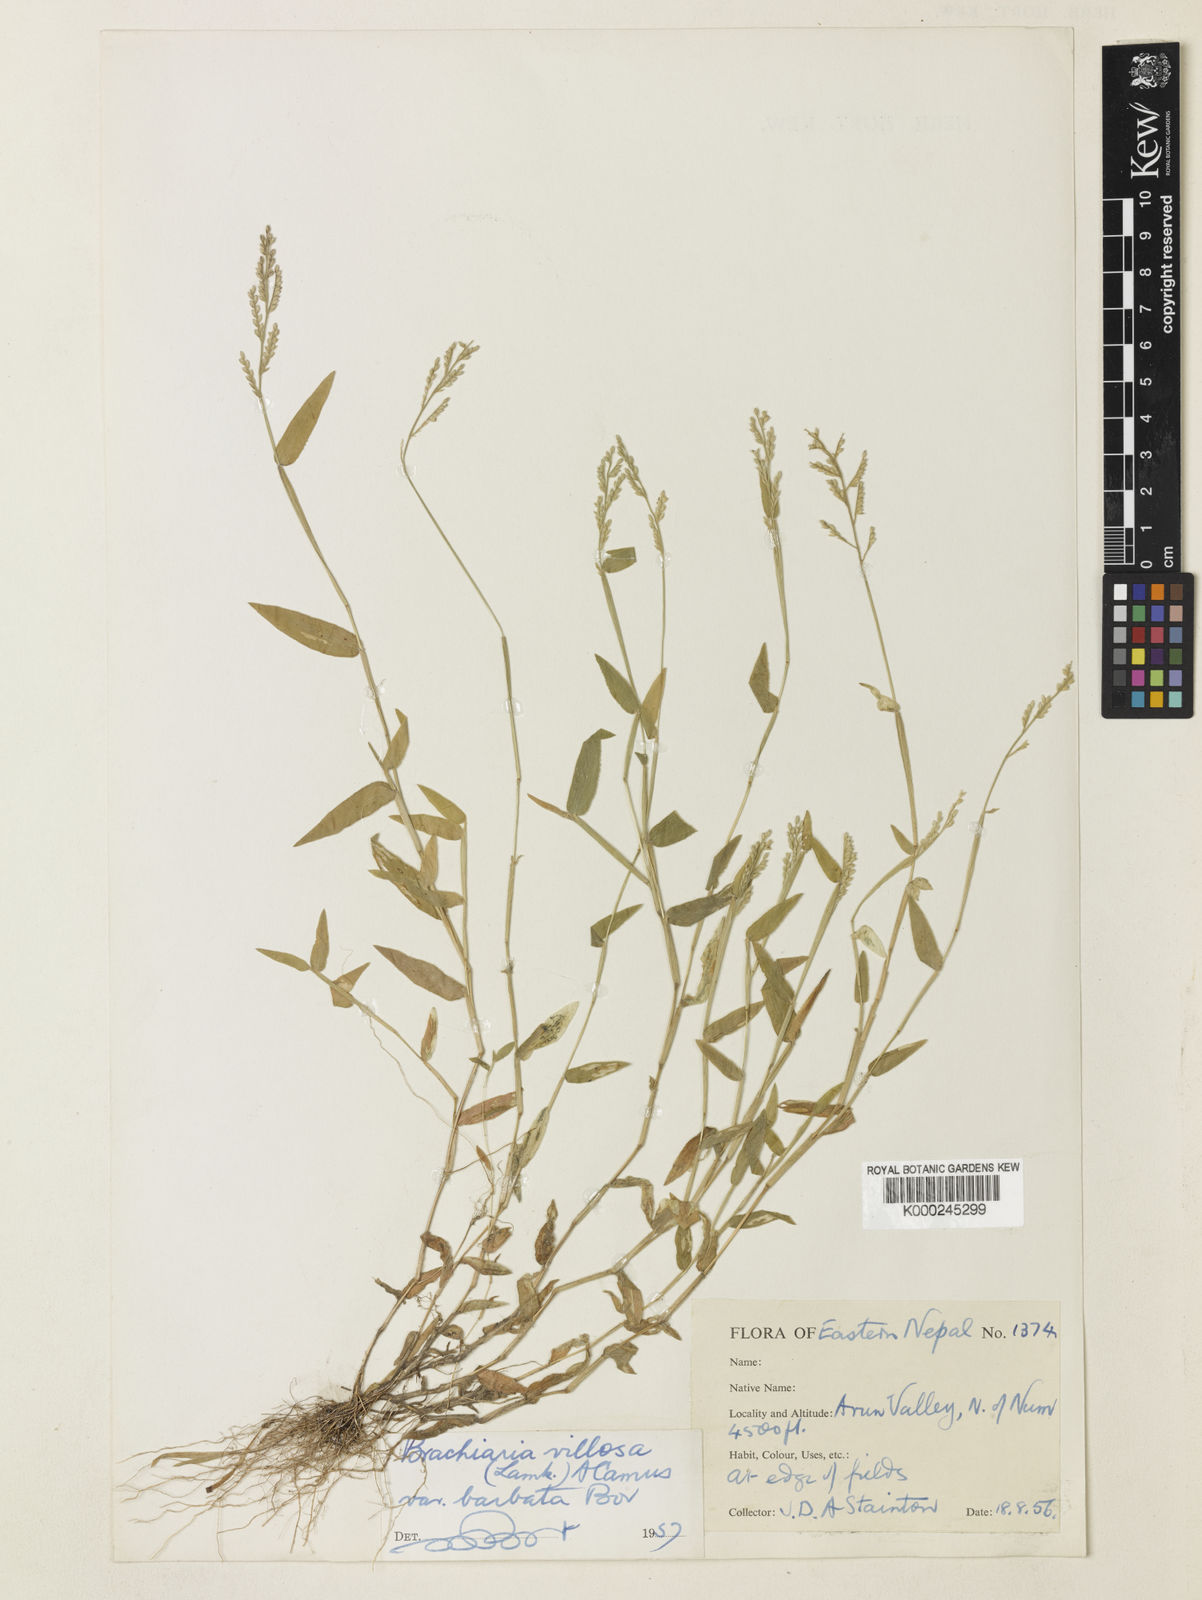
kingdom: Plantae
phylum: Tracheophyta
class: Liliopsida
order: Poales
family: Poaceae
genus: Urochloa
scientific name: Urochloa villosa
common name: Hairy signalgrass
